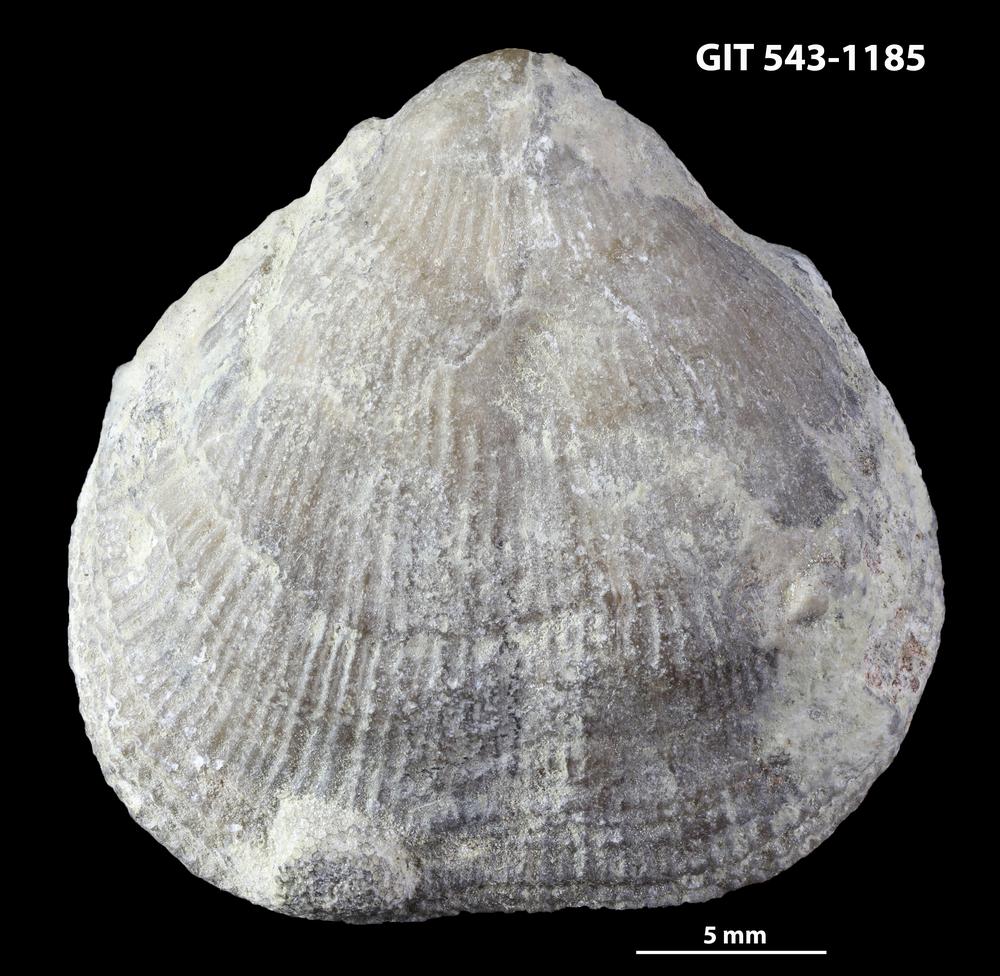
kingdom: Animalia
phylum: Brachiopoda
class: Rhynchonellata
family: Clitambonitidae
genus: Vellamo
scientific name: Vellamo oandoensis
